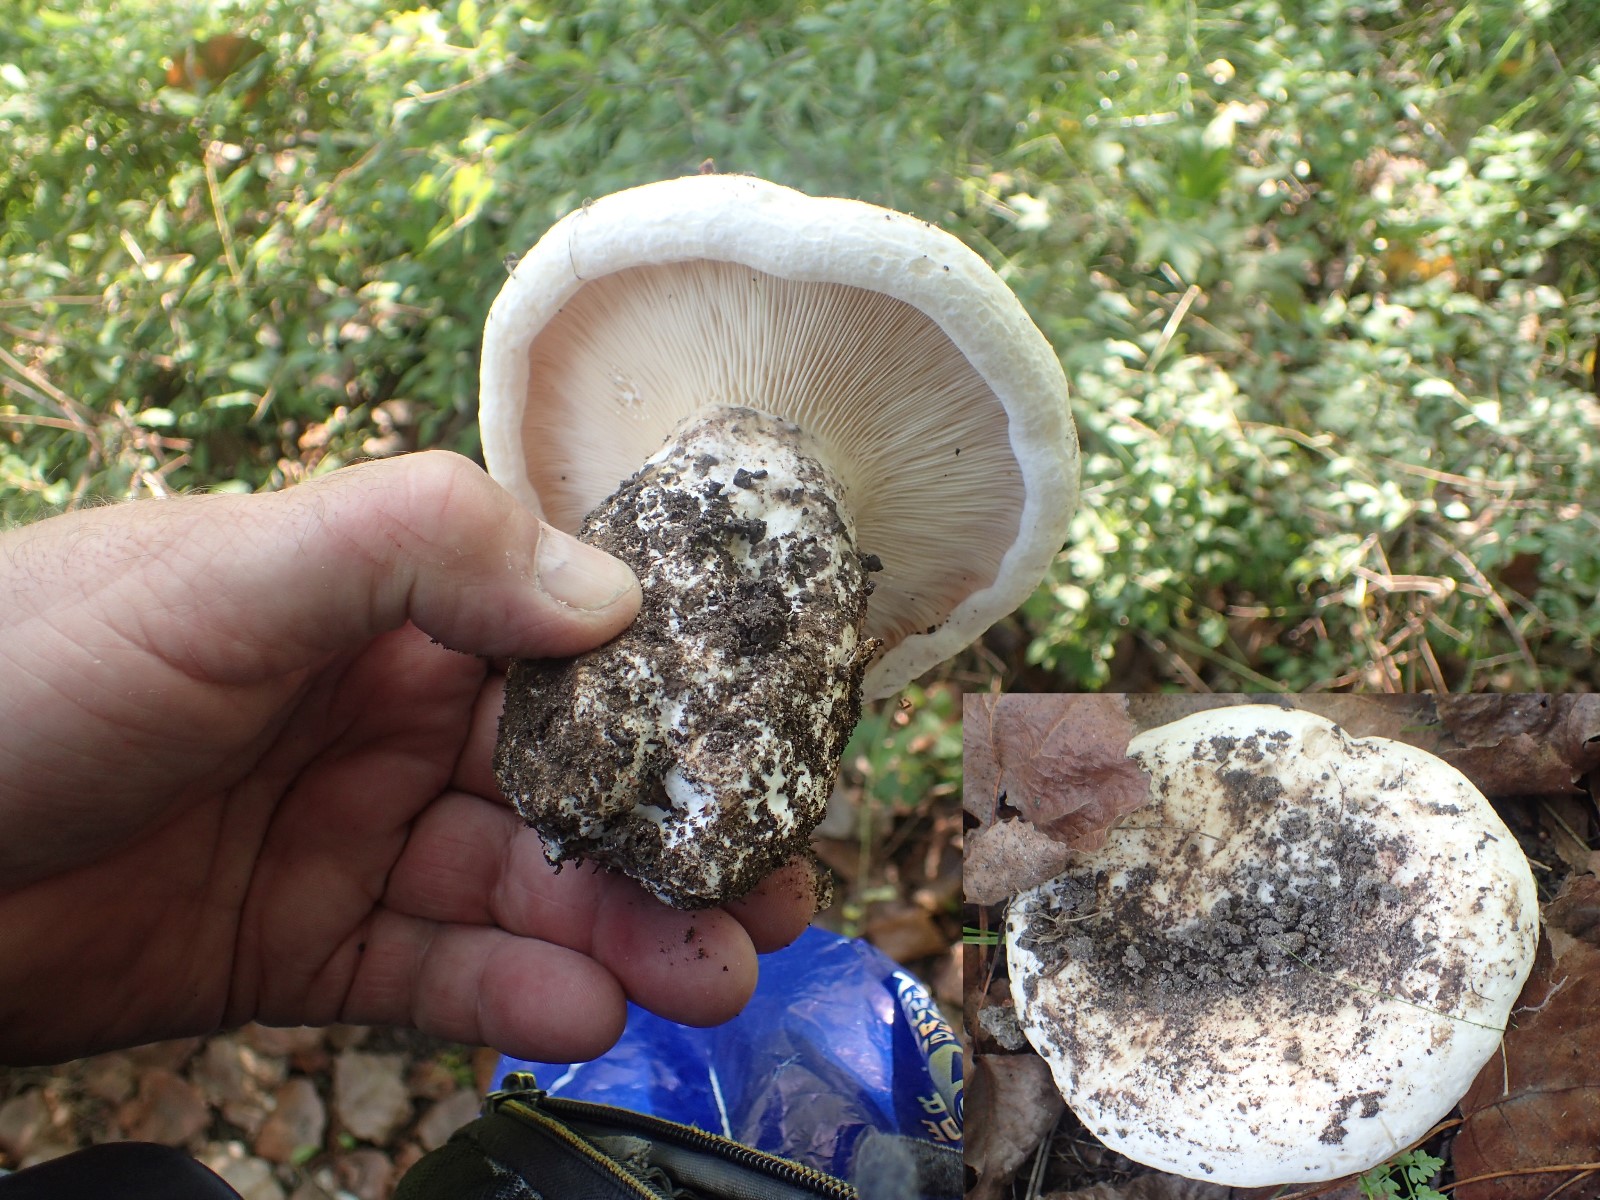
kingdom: Fungi
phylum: Basidiomycota
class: Agaricomycetes
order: Russulales
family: Russulaceae
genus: Lactarius
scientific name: Lactarius controversus
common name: rosabladet mælkehat
